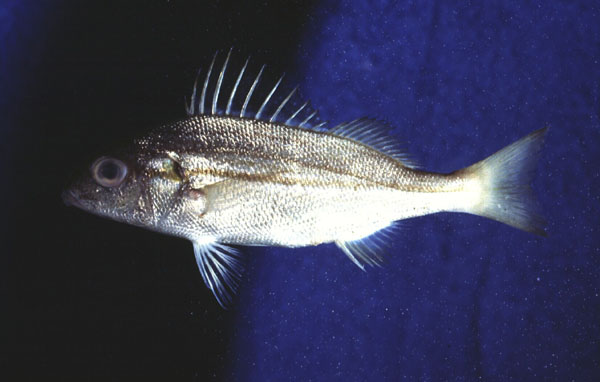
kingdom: Animalia
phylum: Chordata
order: Perciformes
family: Haemulidae
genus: Pomadasys
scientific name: Pomadasys stridens
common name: Striped piggy
